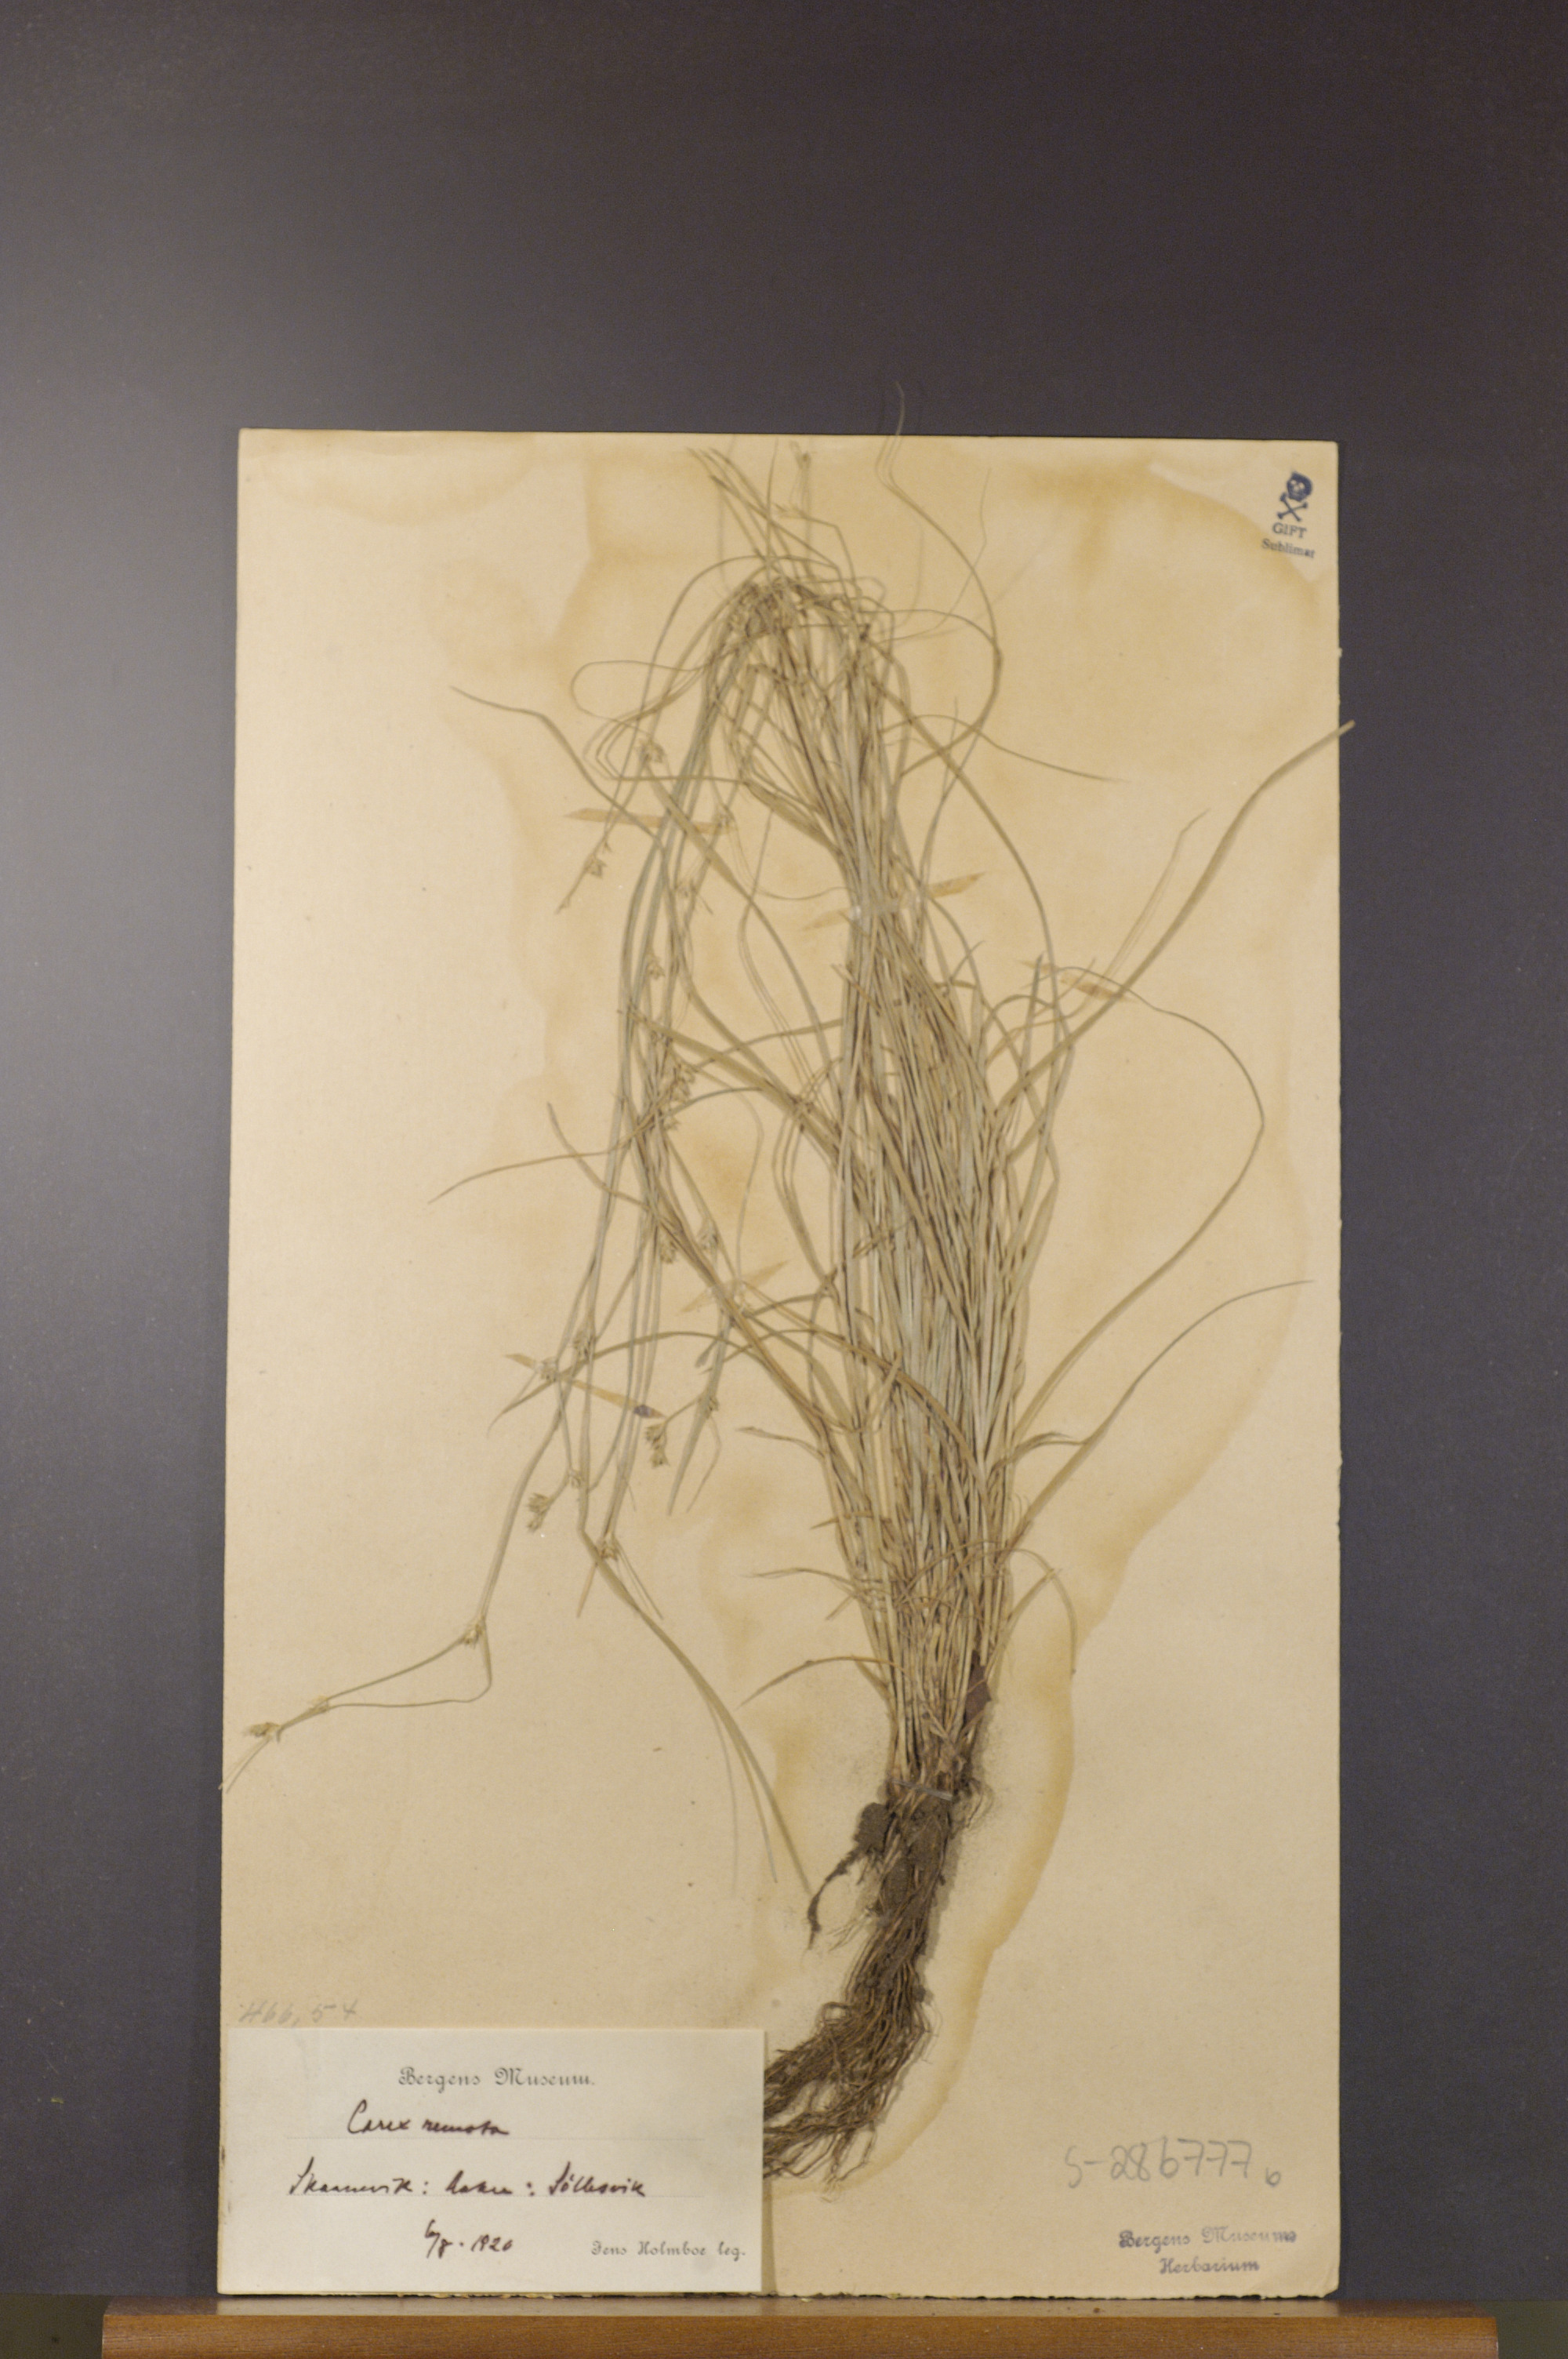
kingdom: Plantae
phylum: Tracheophyta
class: Liliopsida
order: Poales
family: Cyperaceae
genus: Carex
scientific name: Carex remota
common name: Remote sedge
